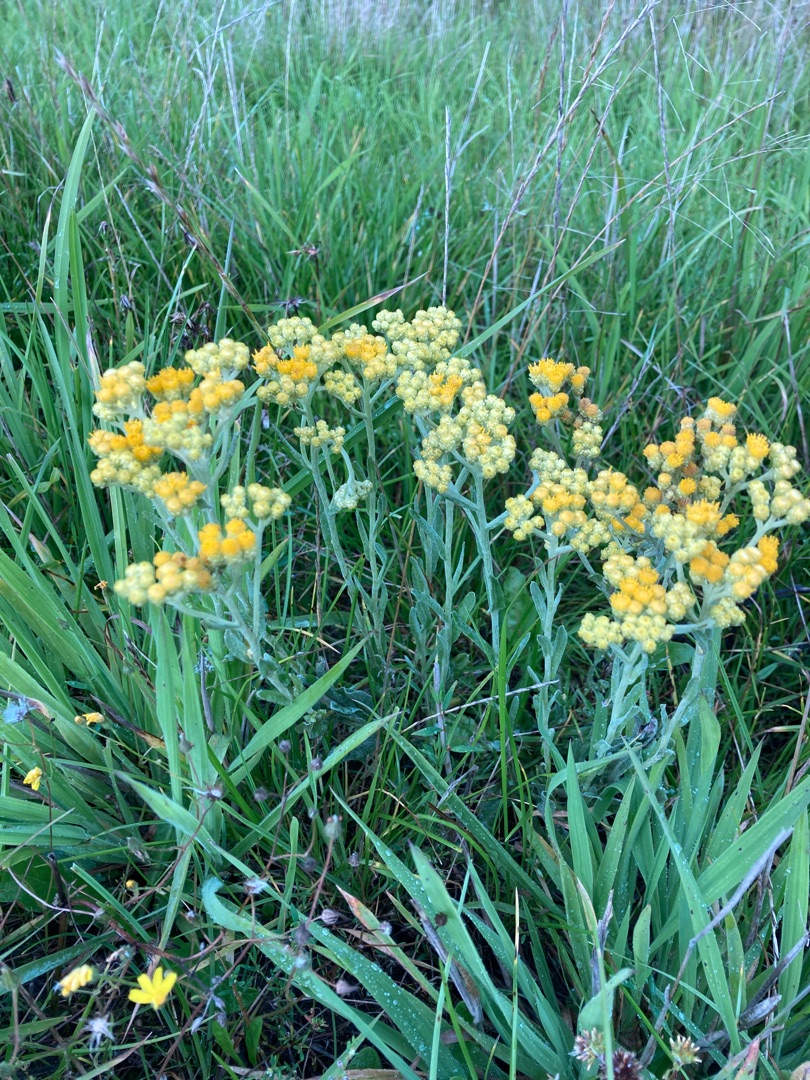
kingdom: Plantae
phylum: Tracheophyta
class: Magnoliopsida
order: Asterales
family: Asteraceae
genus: Helichrysum
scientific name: Helichrysum arenarium
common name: Gul evighedsblomst
